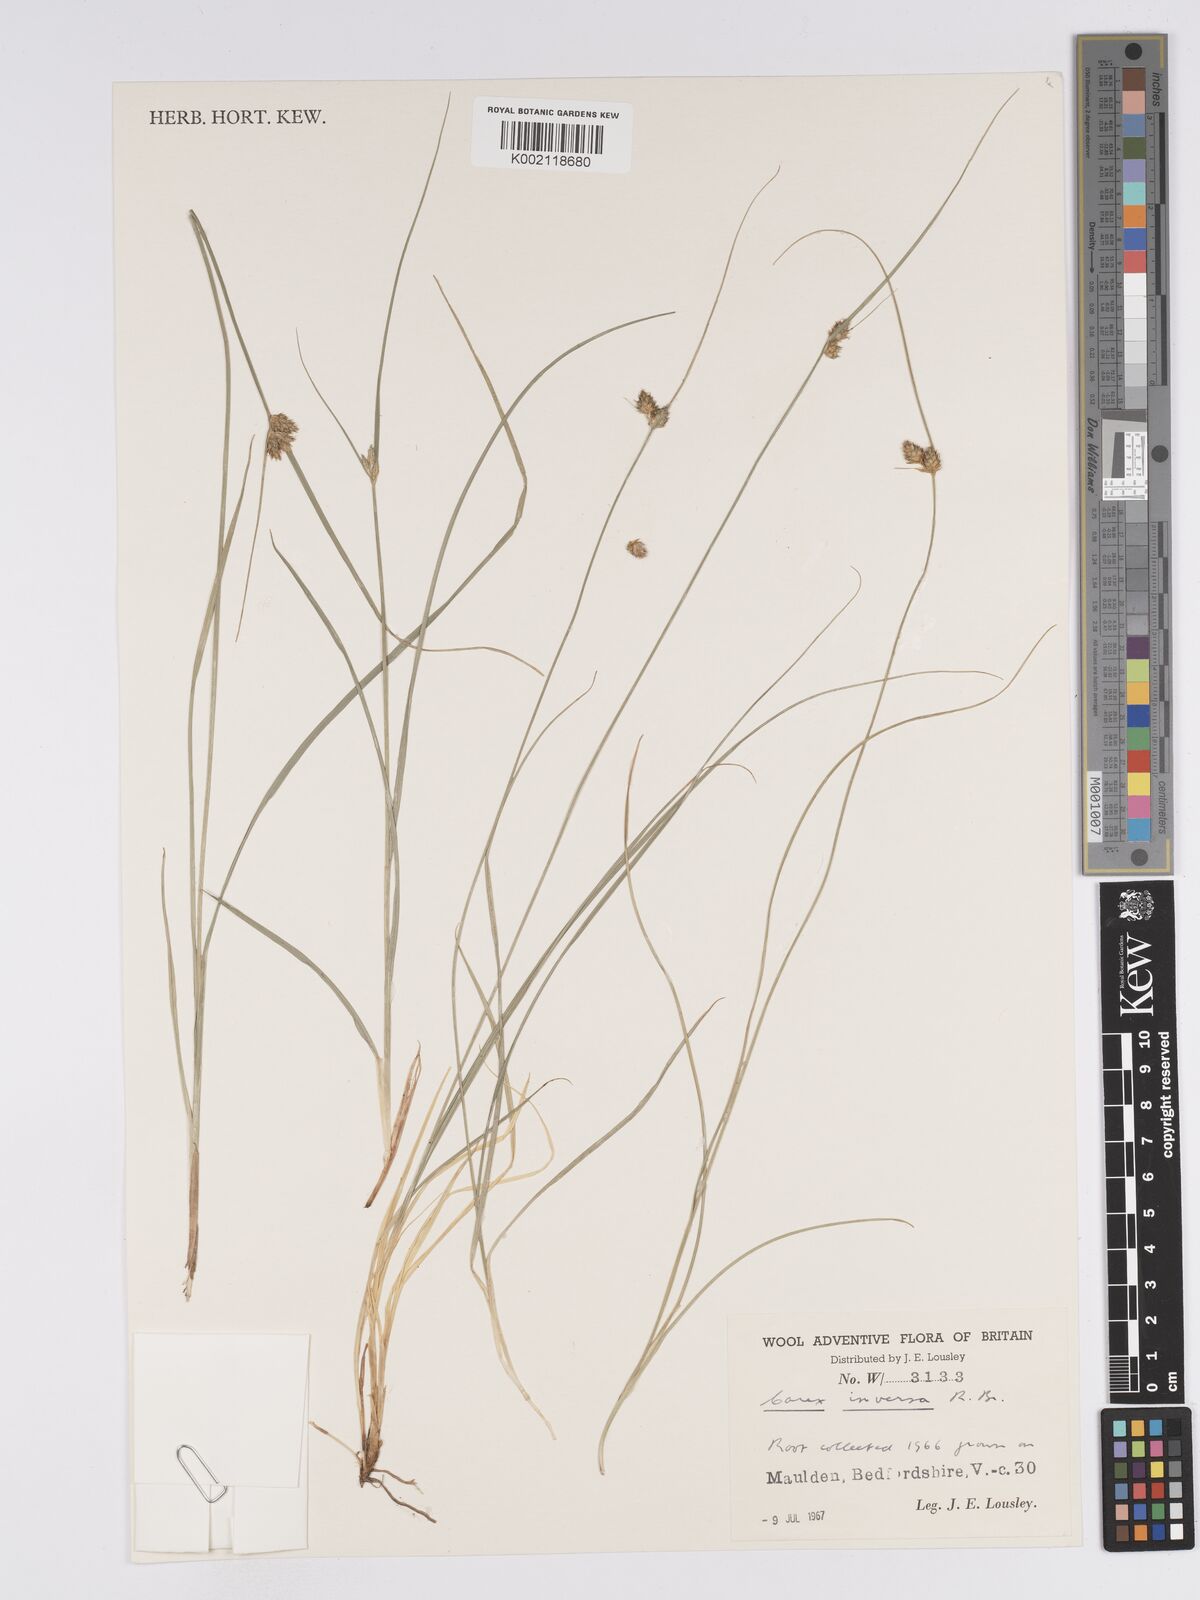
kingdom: Plantae
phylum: Tracheophyta
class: Liliopsida
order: Poales
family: Cyperaceae
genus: Carex
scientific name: Carex inversa
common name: Knob sedge
